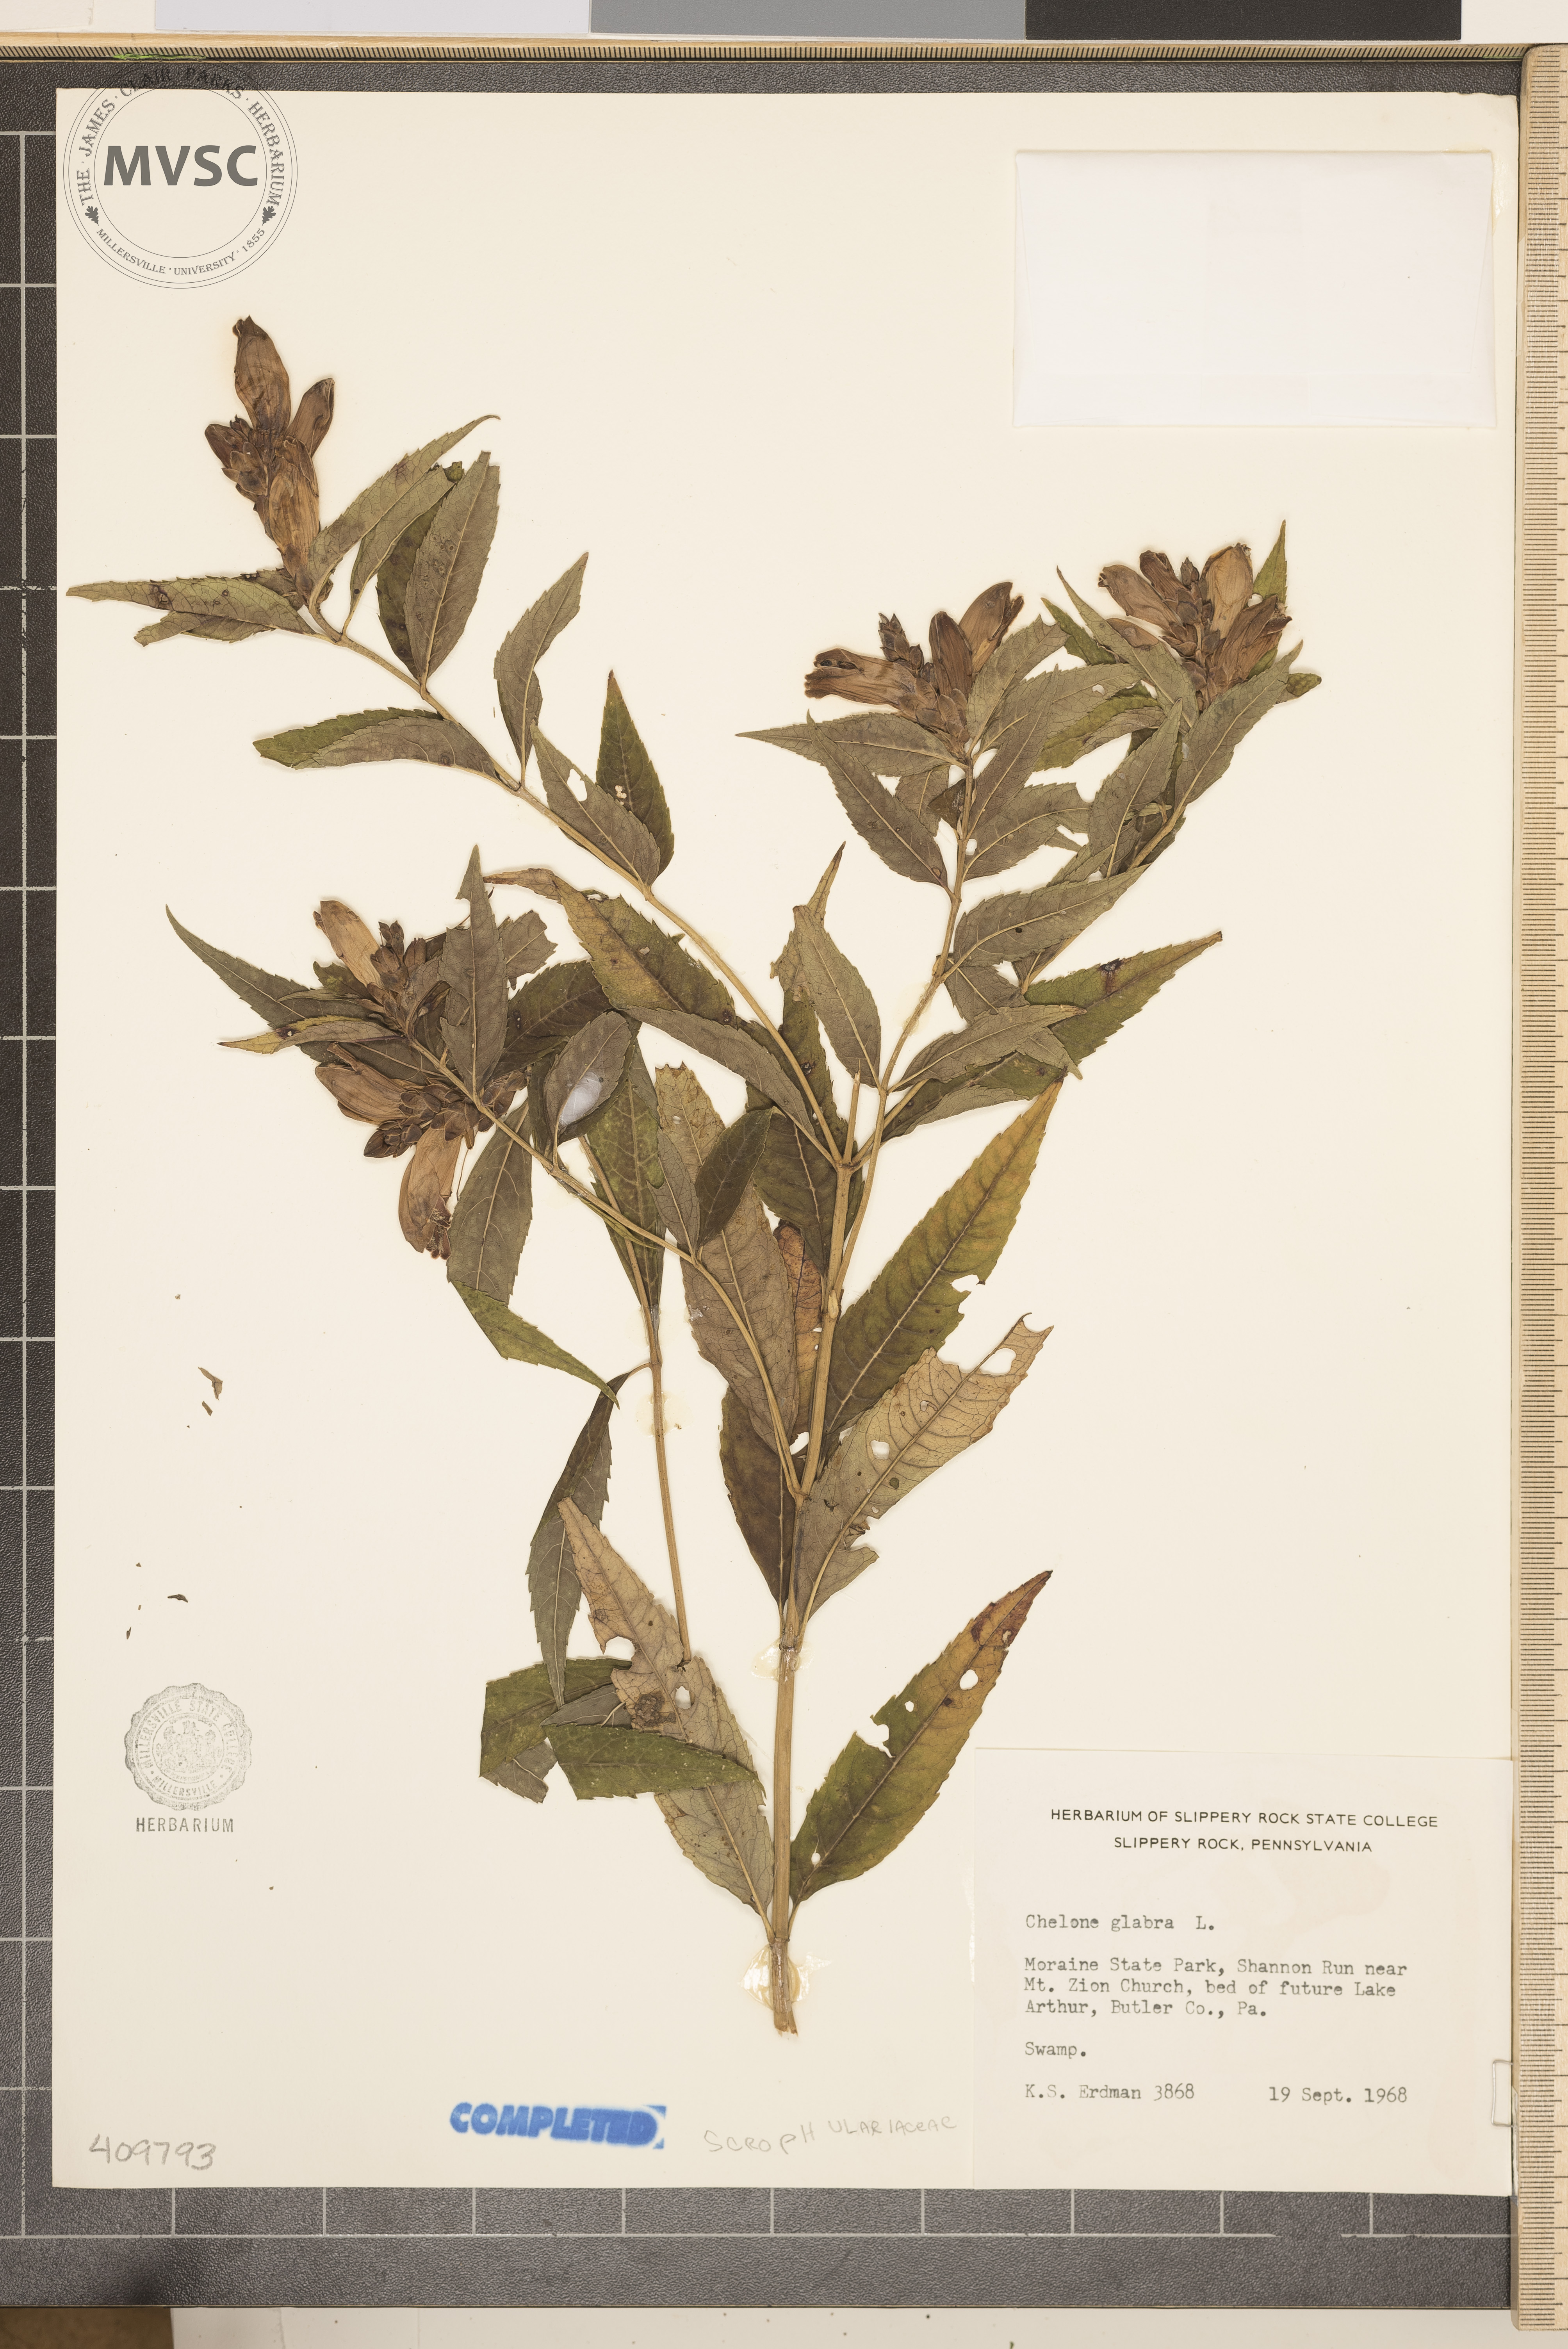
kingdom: Plantae
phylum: Tracheophyta
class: Magnoliopsida
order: Lamiales
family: Plantaginaceae
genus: Chelone
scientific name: Chelone glabra
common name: Snakehead
